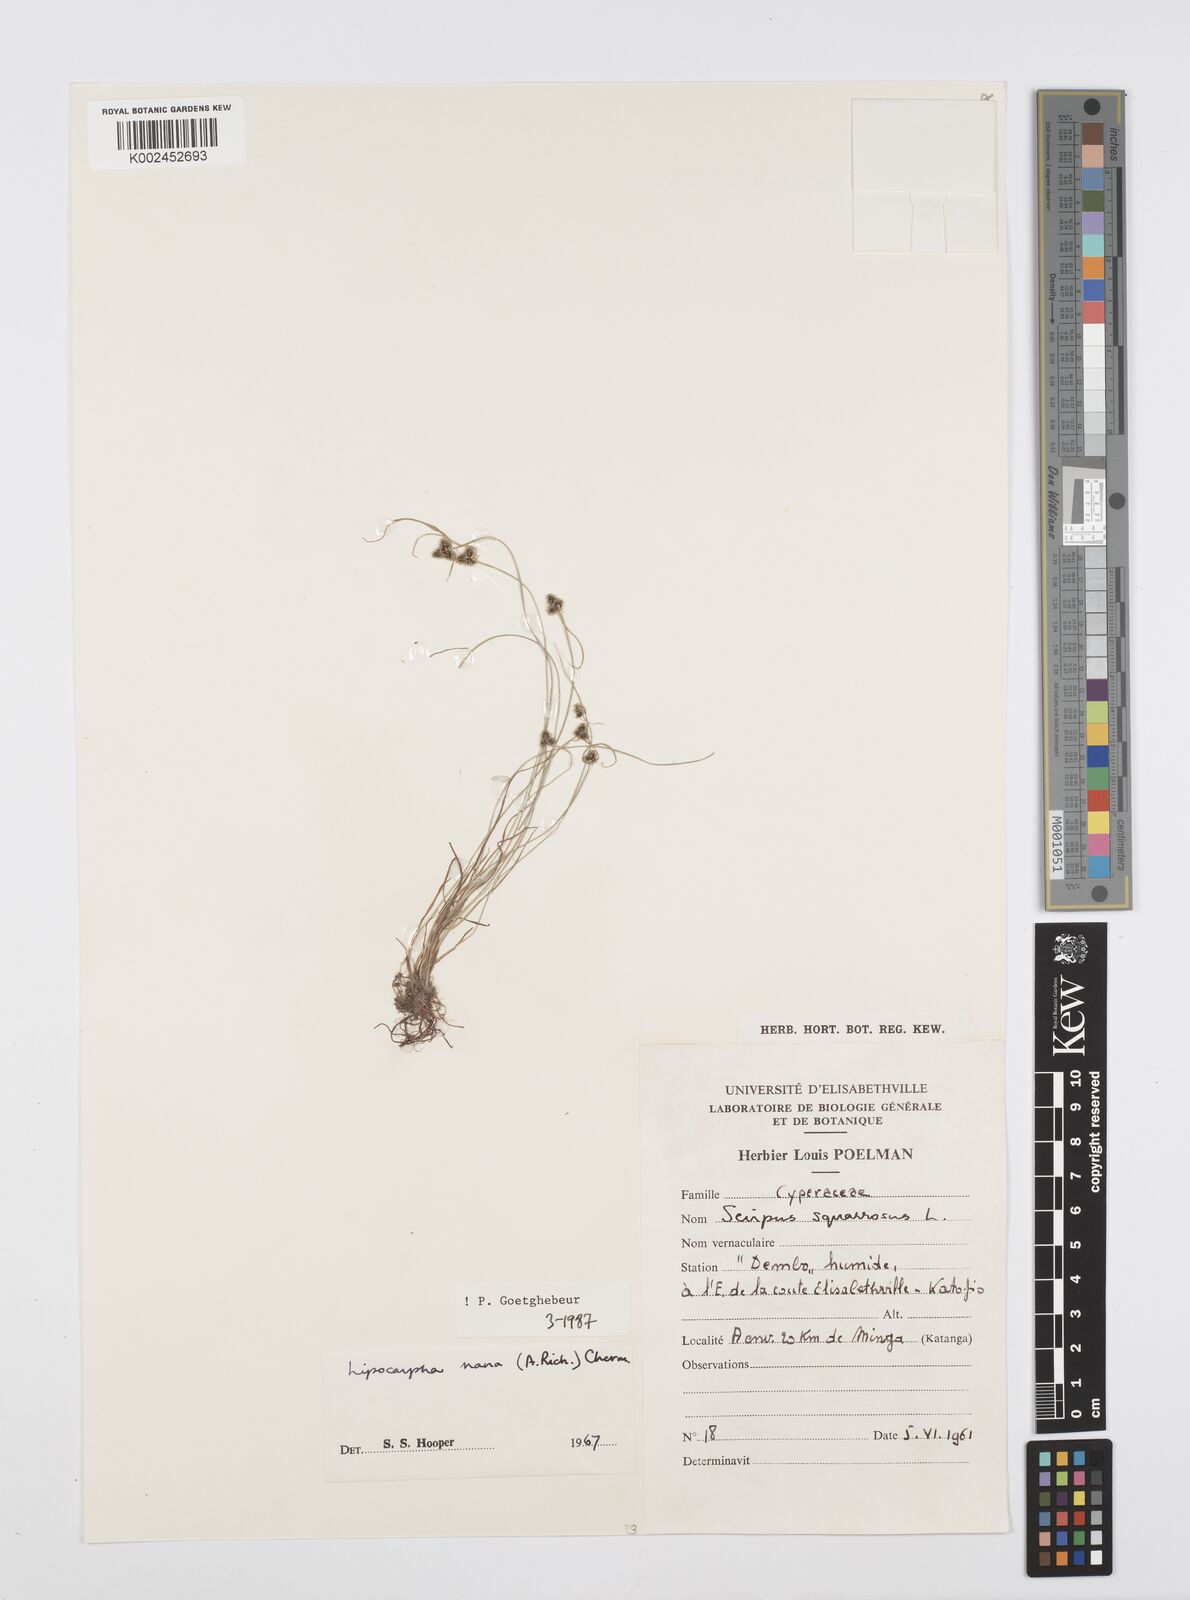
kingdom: Plantae
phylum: Tracheophyta
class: Liliopsida
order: Poales
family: Cyperaceae
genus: Cyperus
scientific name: Cyperus persquarrosus
